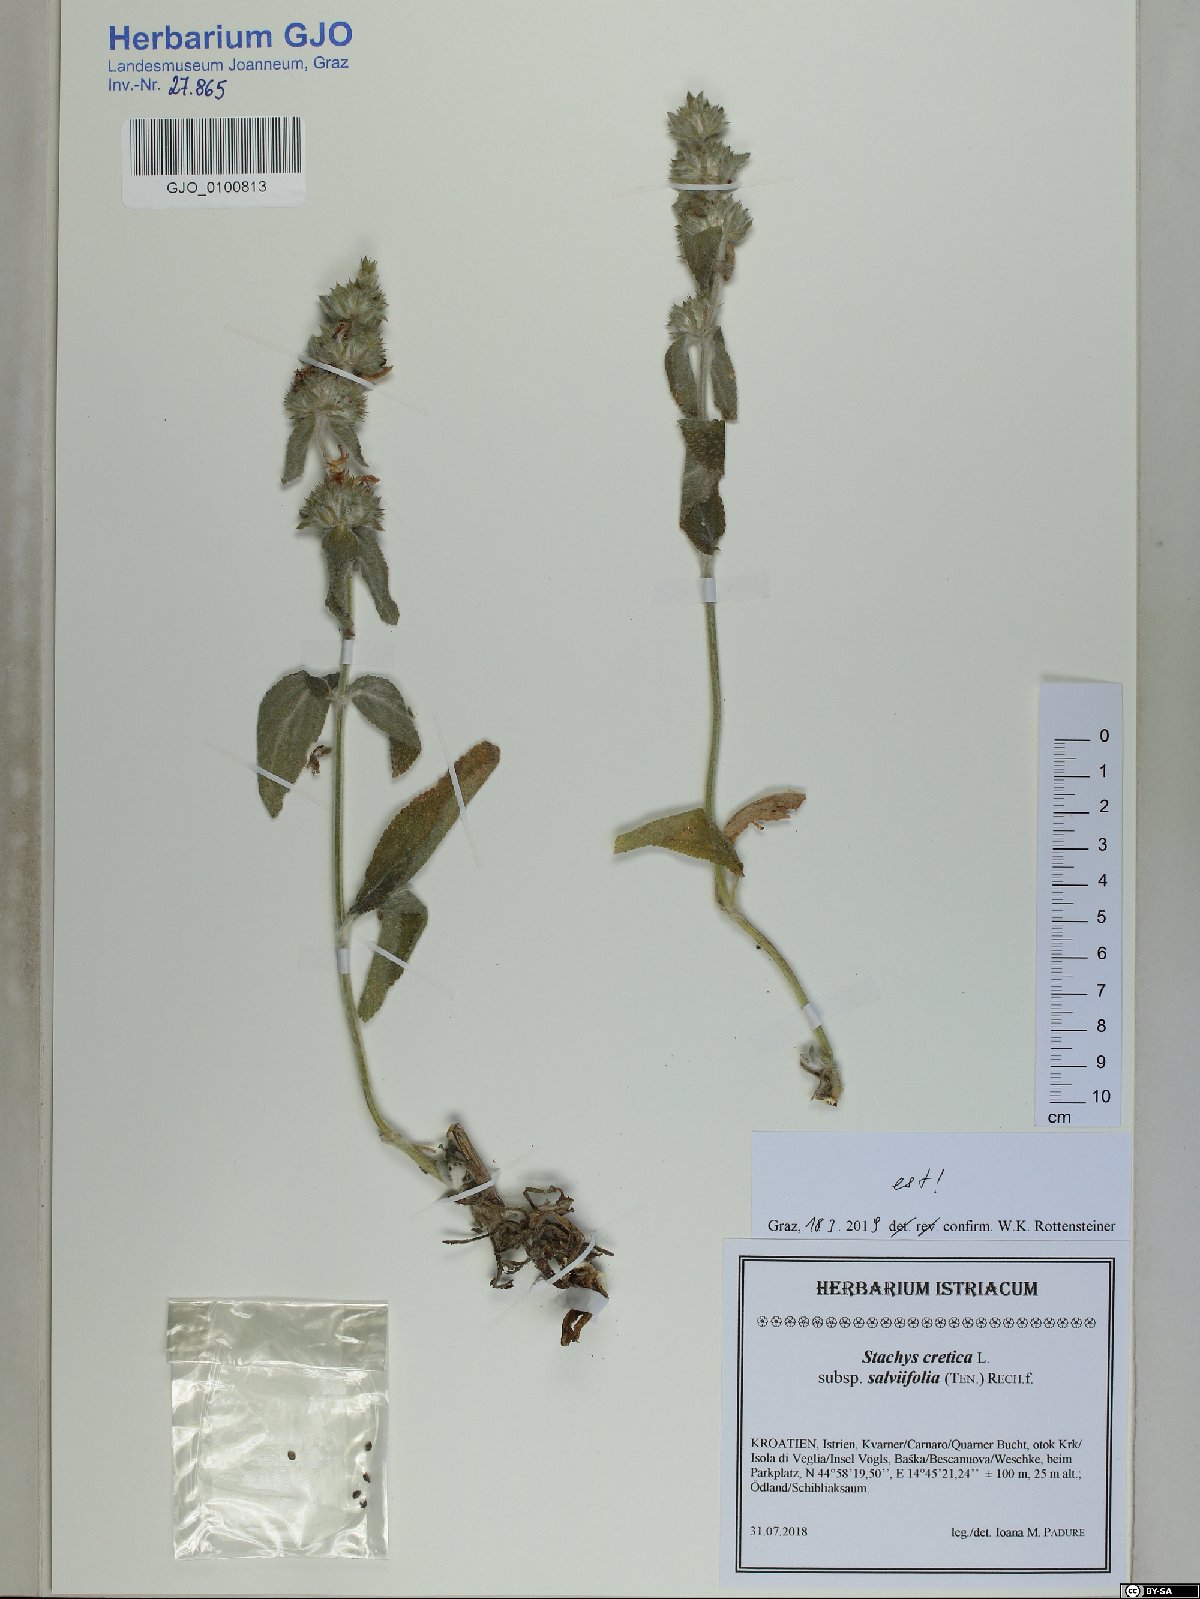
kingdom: Plantae
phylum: Tracheophyta
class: Magnoliopsida
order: Lamiales
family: Lamiaceae
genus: Stachys
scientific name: Stachys cretica
